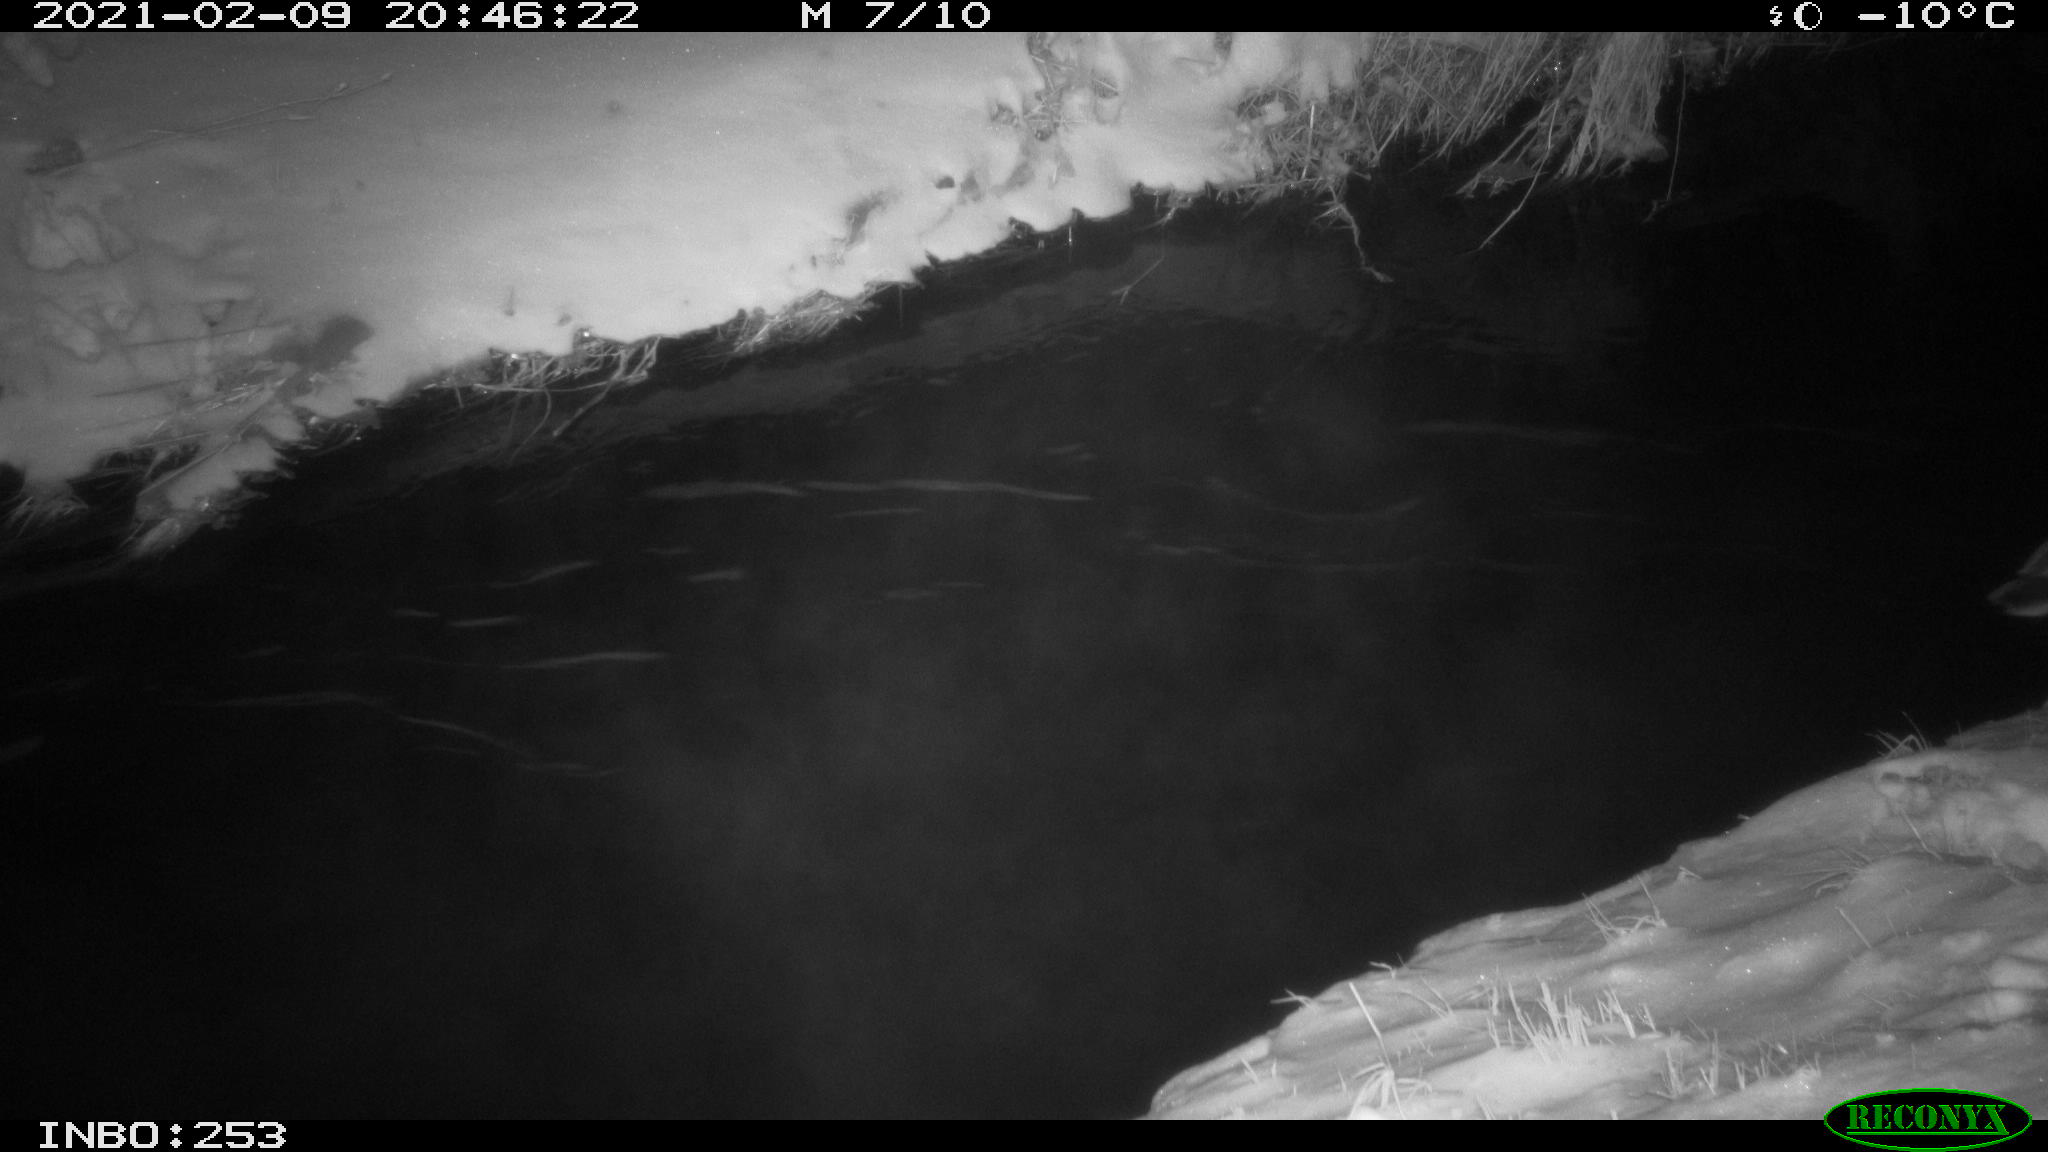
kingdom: Animalia
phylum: Chordata
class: Aves
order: Anseriformes
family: Anatidae
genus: Anas
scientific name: Anas platyrhynchos
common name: Mallard
